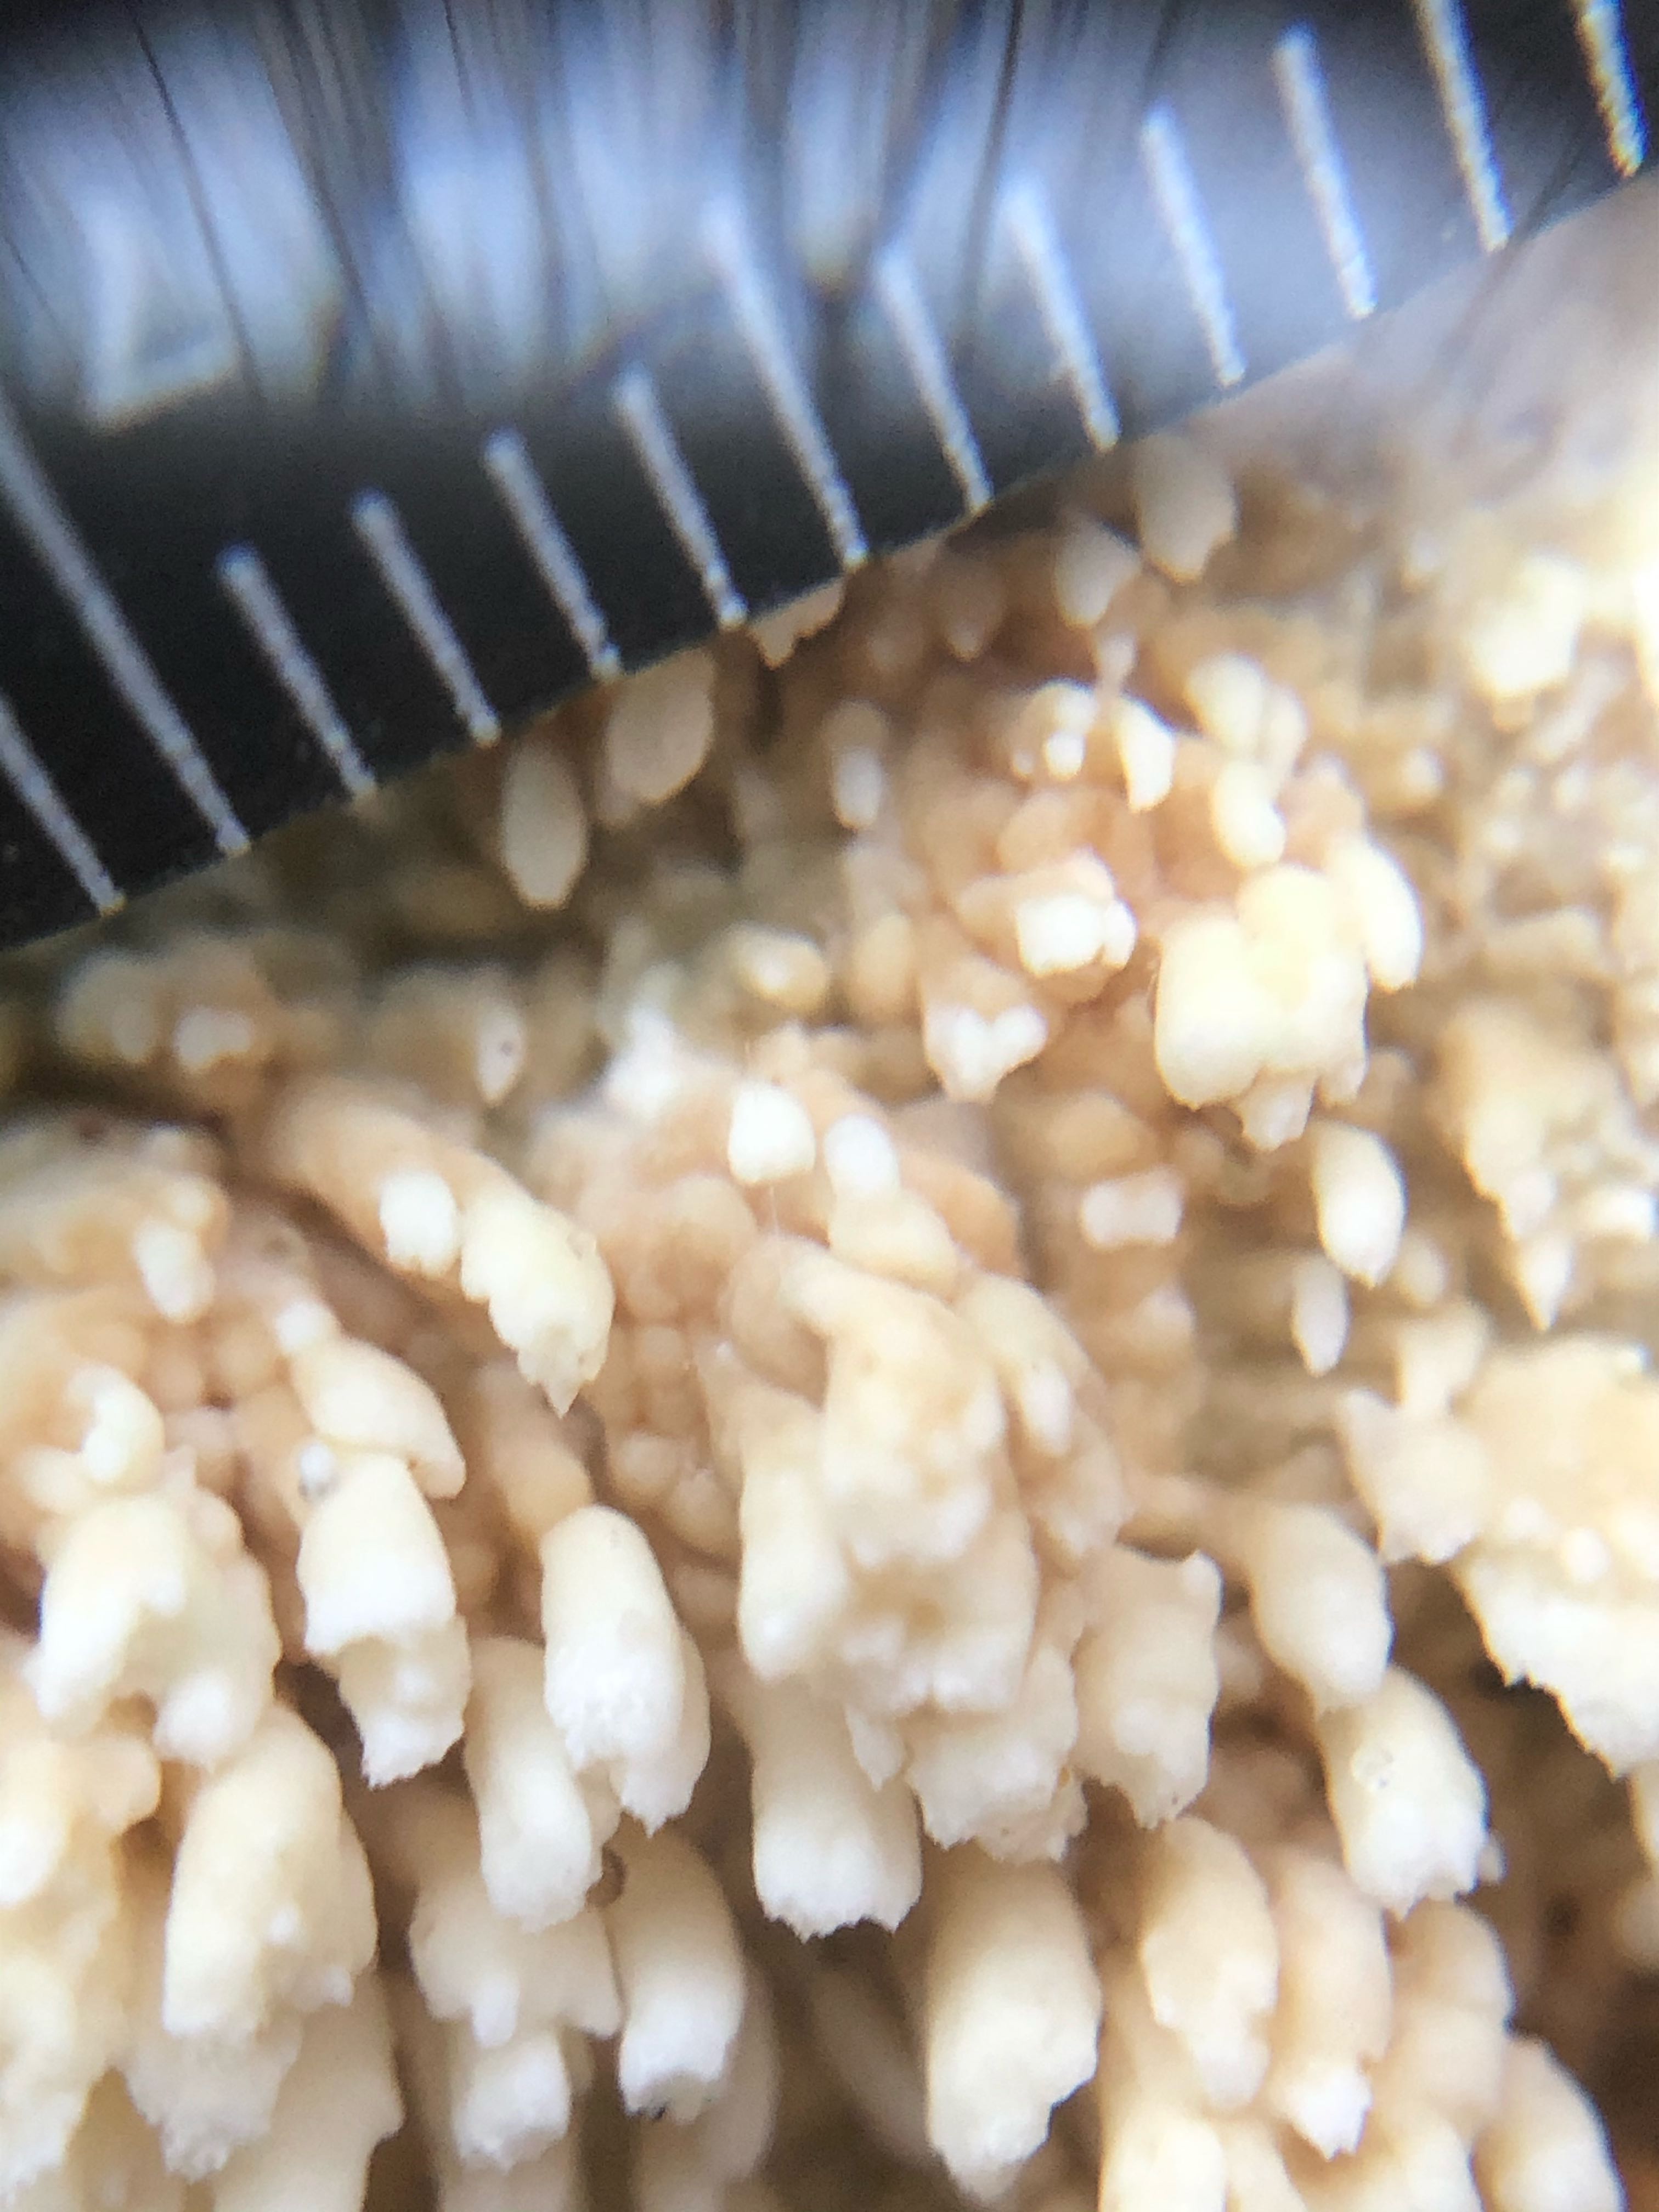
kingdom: Fungi
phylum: Basidiomycota
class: Agaricomycetes
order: Hymenochaetales
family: Schizoporaceae
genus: Xylodon
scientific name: Xylodon radula
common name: grovtandet kalkskind
